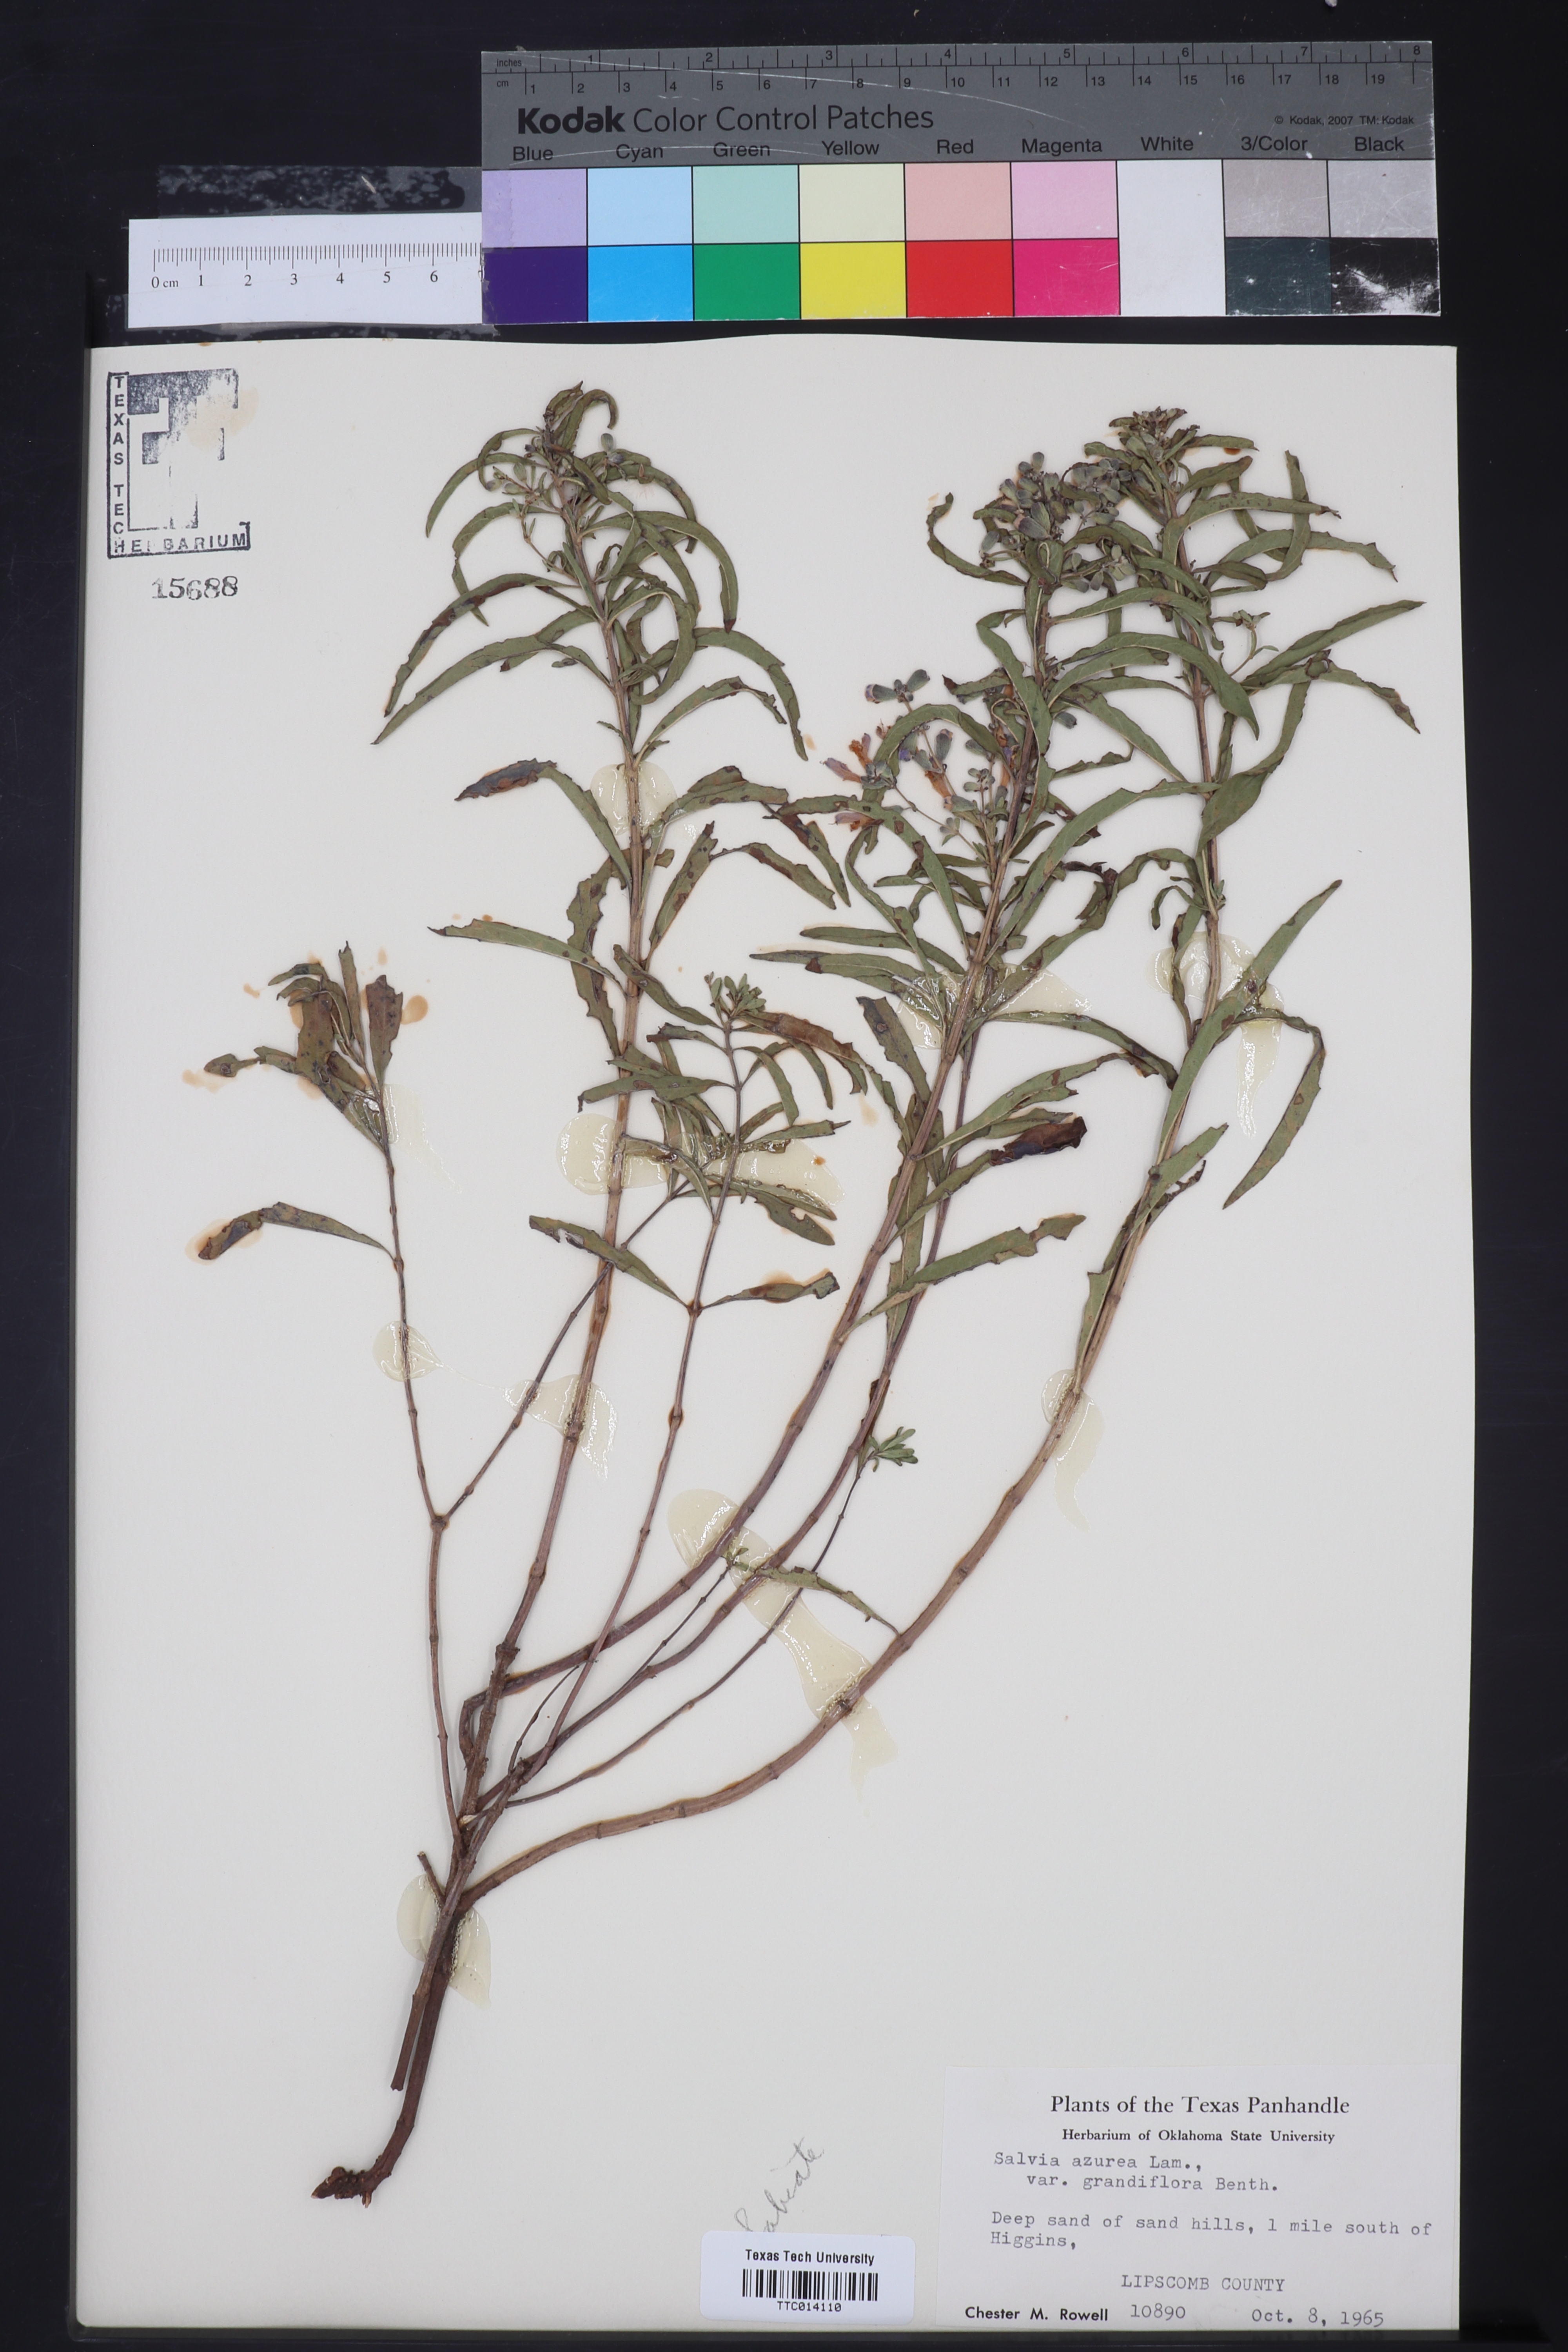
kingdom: Plantae
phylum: Tracheophyta
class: Magnoliopsida
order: Lamiales
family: Lamiaceae
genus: Salvia
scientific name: Salvia azurea
